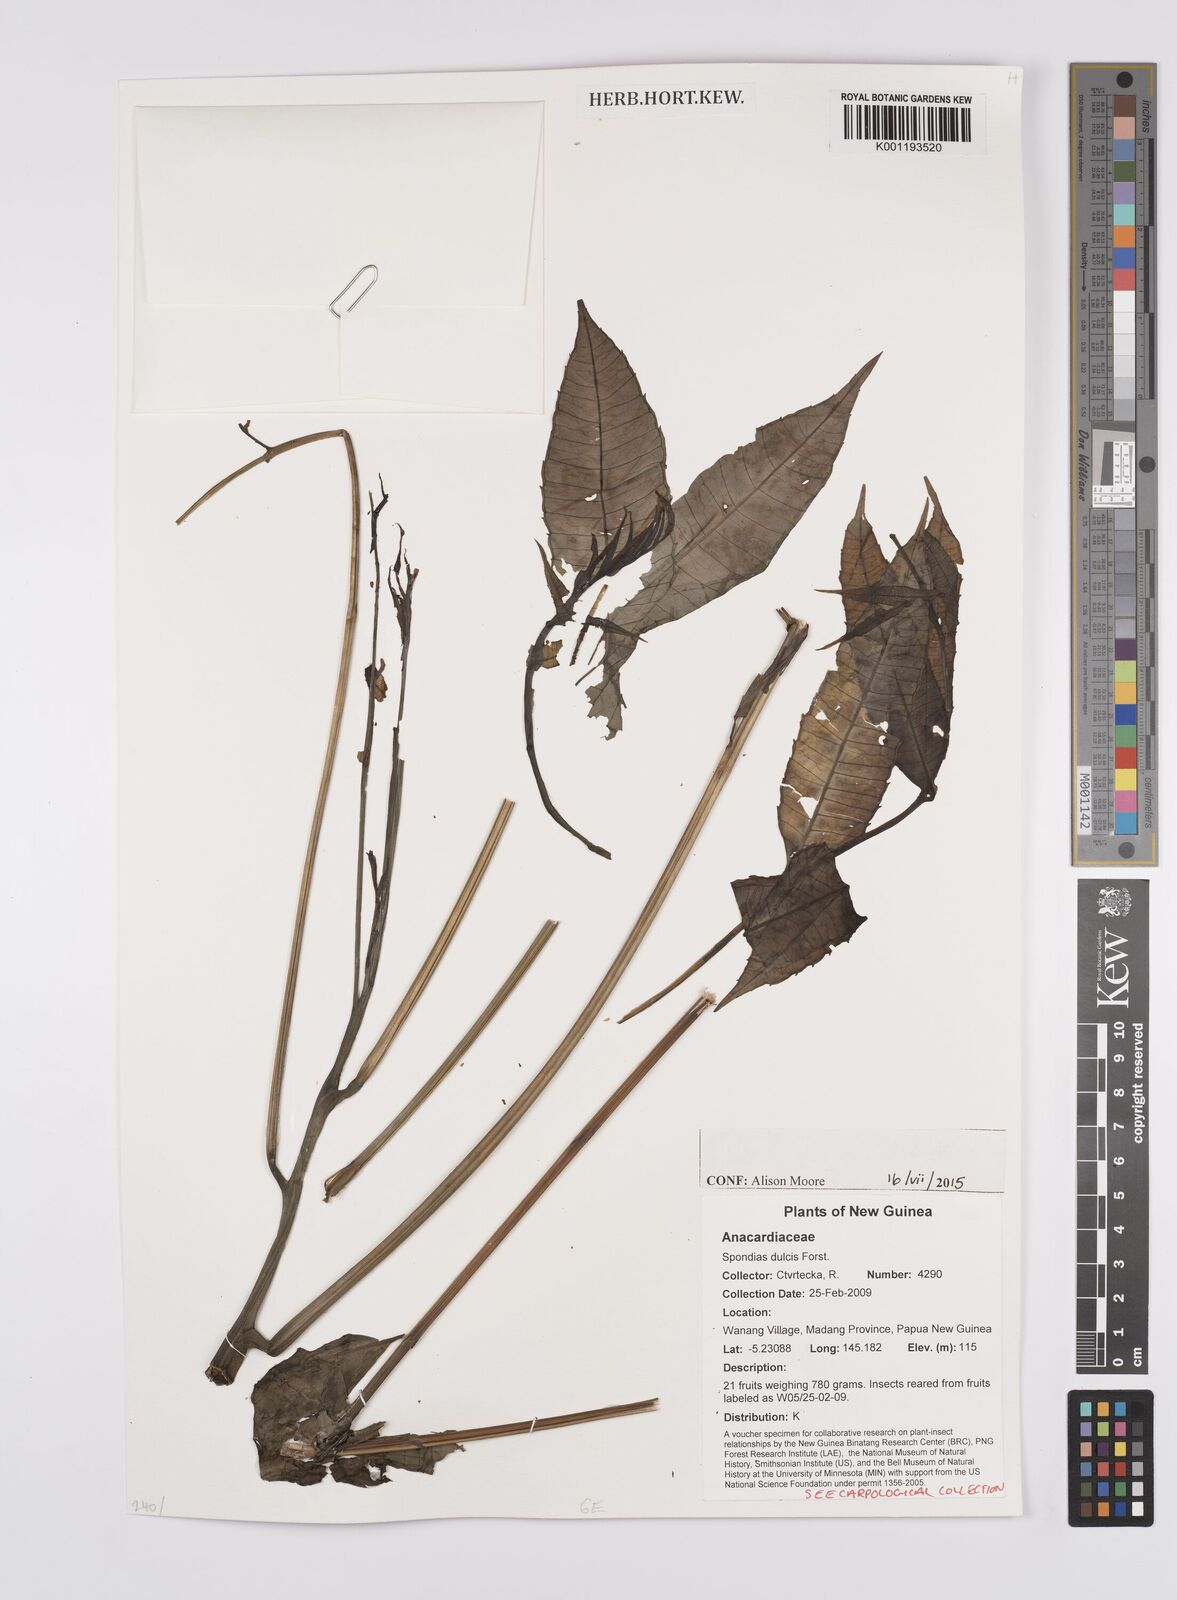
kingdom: Plantae
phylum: Tracheophyta
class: Magnoliopsida
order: Sapindales
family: Anacardiaceae
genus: Spondias
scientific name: Spondias
